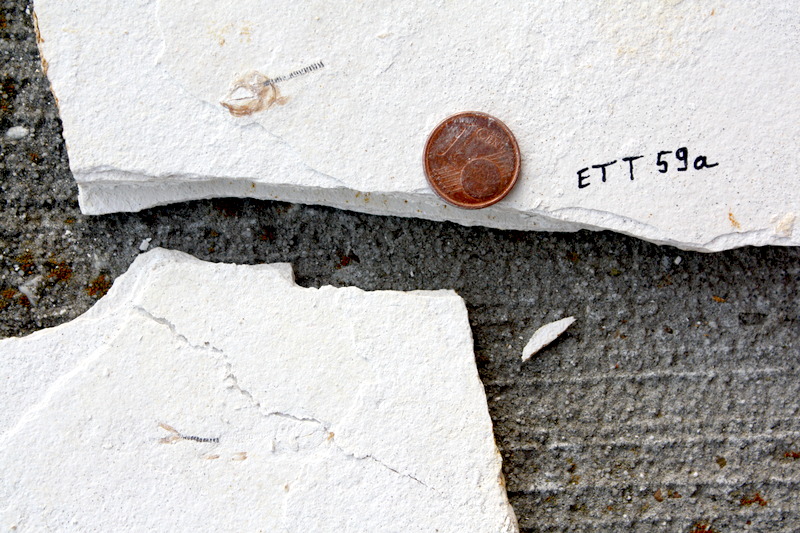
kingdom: Animalia
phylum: Chordata
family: Ascalaboidae
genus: Ebertichthys
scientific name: Ebertichthys ettlingensis
